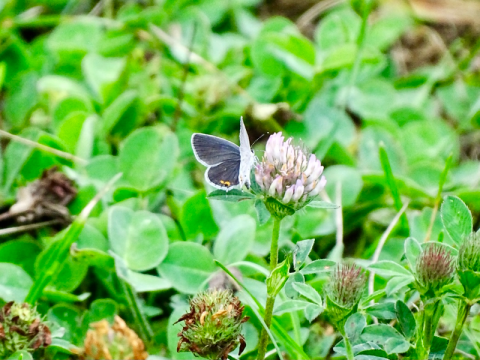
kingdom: Animalia
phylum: Arthropoda
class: Insecta
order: Lepidoptera
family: Lycaenidae
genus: Elkalyce
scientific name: Elkalyce comyntas
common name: Eastern Tailed-Blue
